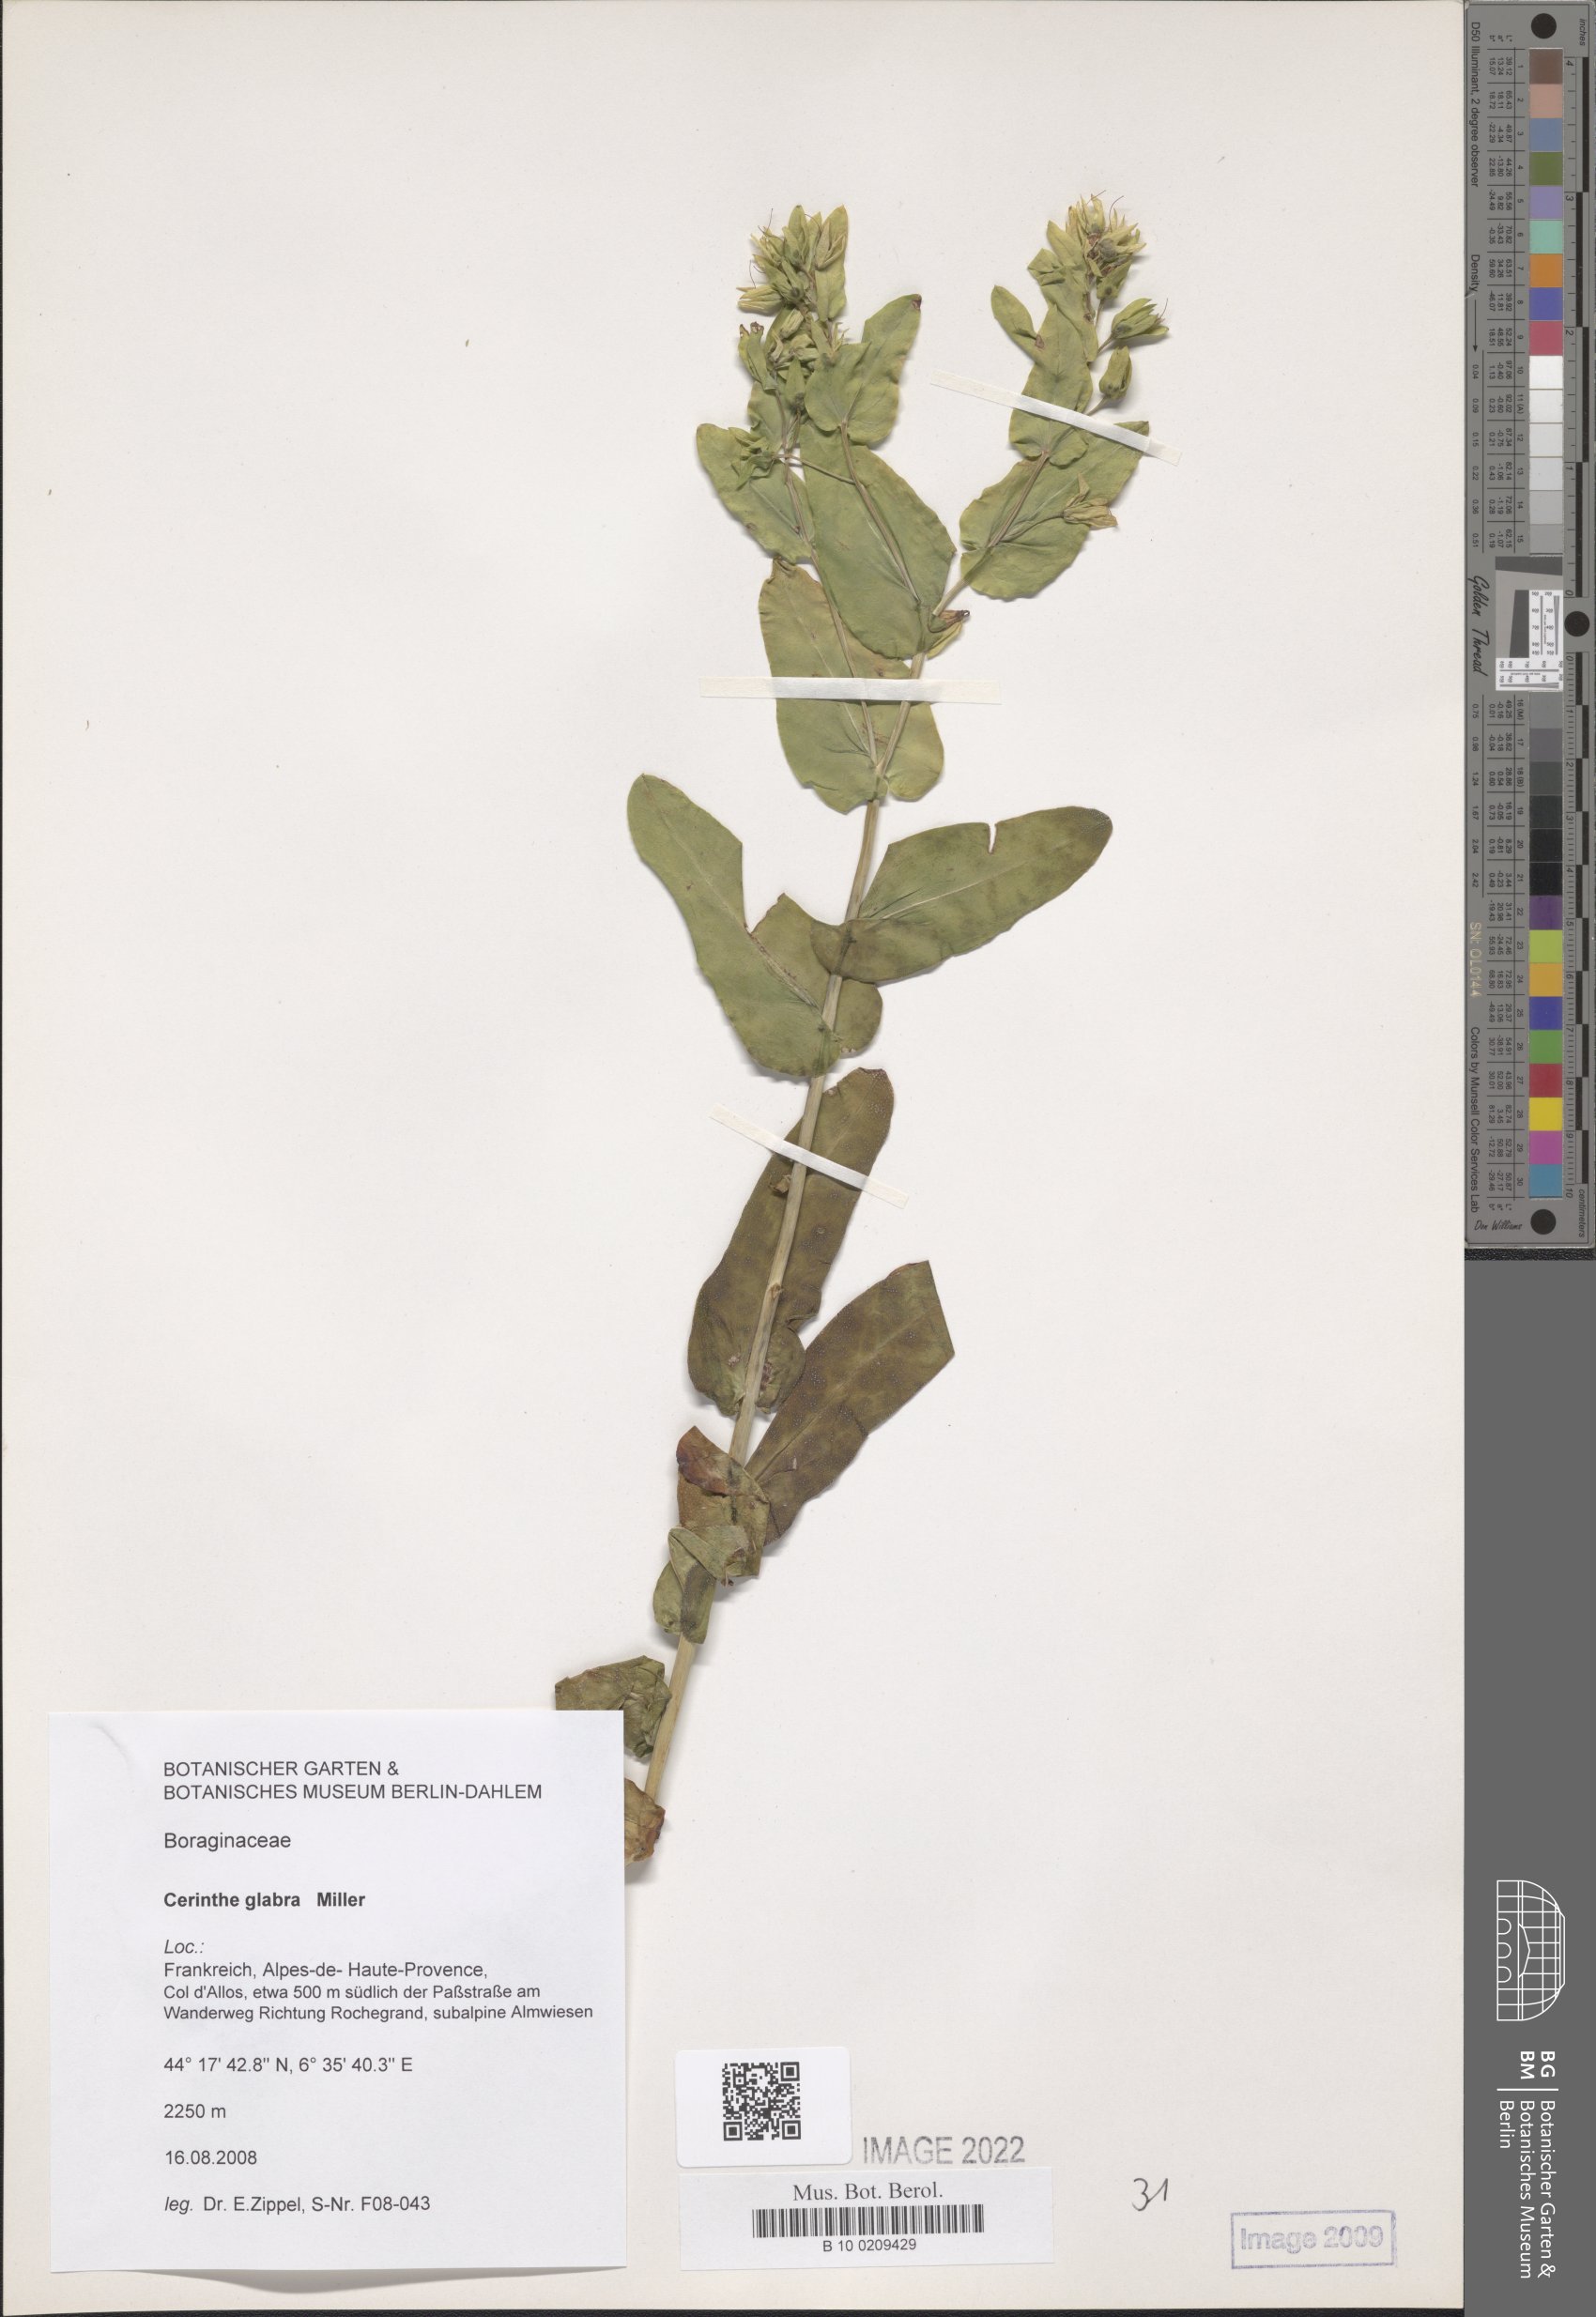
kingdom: Plantae
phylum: Tracheophyta
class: Magnoliopsida
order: Boraginales
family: Boraginaceae
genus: Cerinthe
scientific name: Cerinthe glabra
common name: Smooth honeywort
